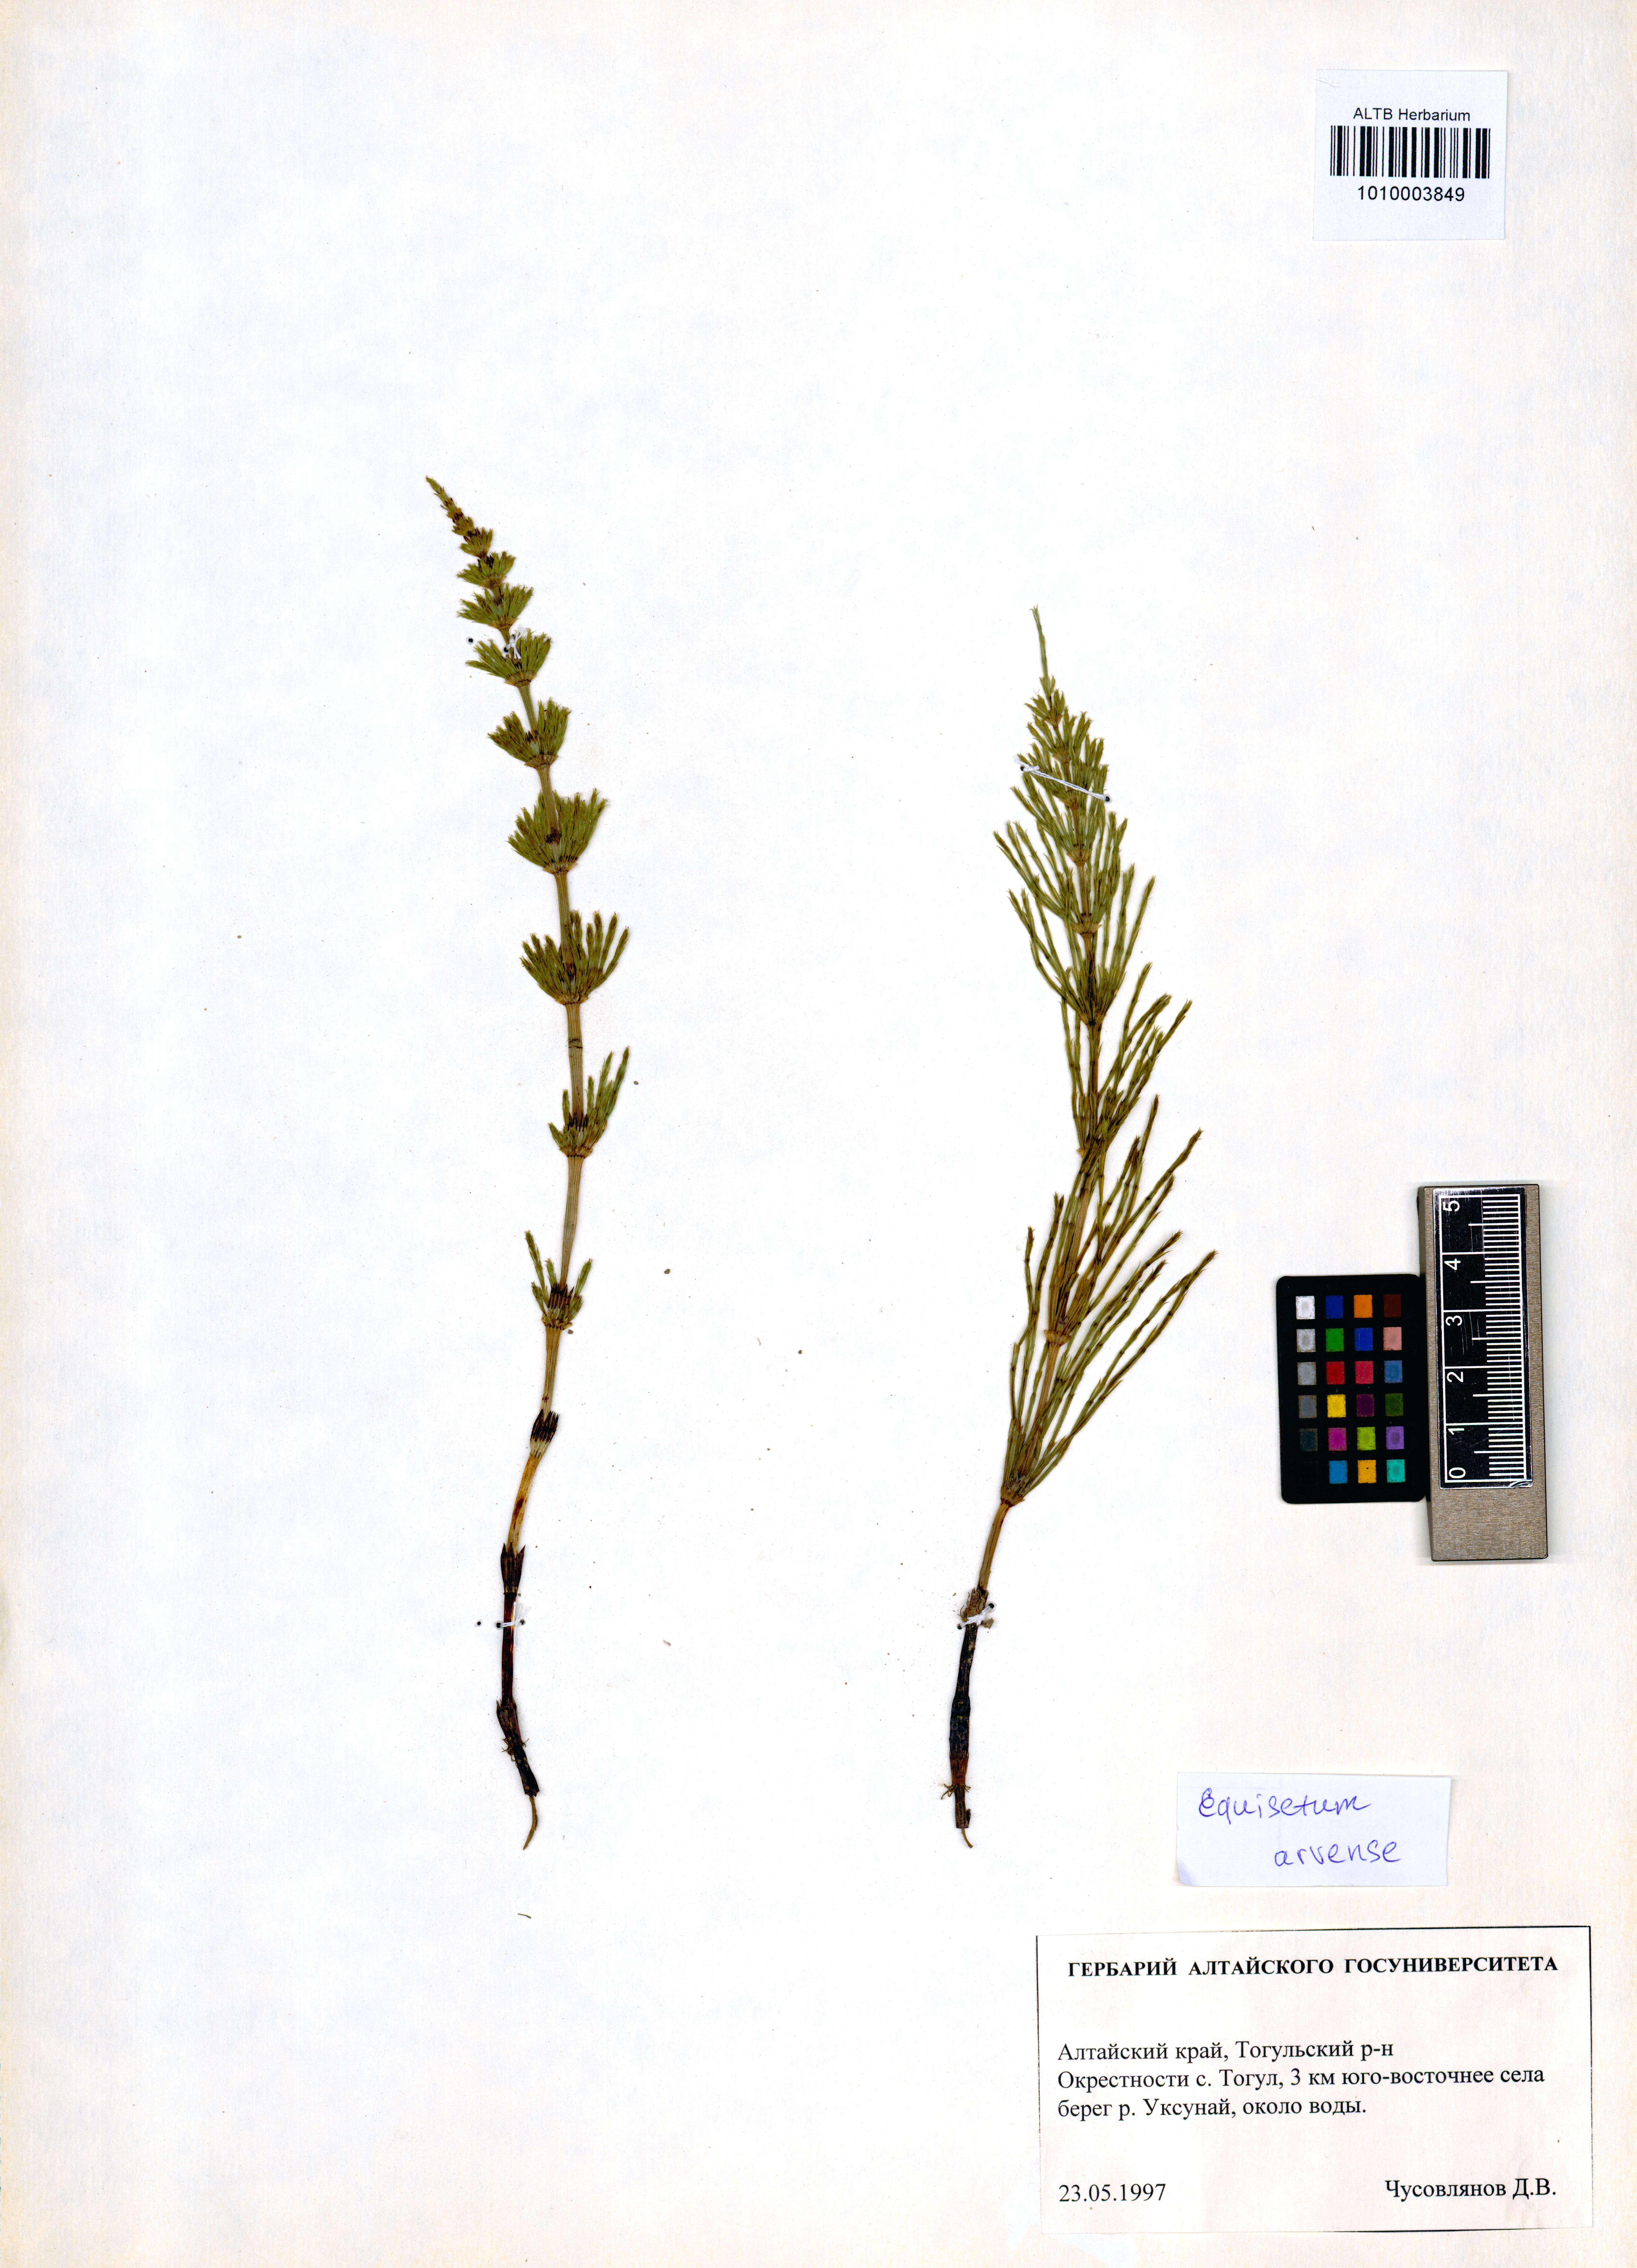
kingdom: Plantae
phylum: Tracheophyta
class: Polypodiopsida
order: Equisetales
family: Equisetaceae
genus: Equisetum
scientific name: Equisetum arvense
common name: Field horsetail
